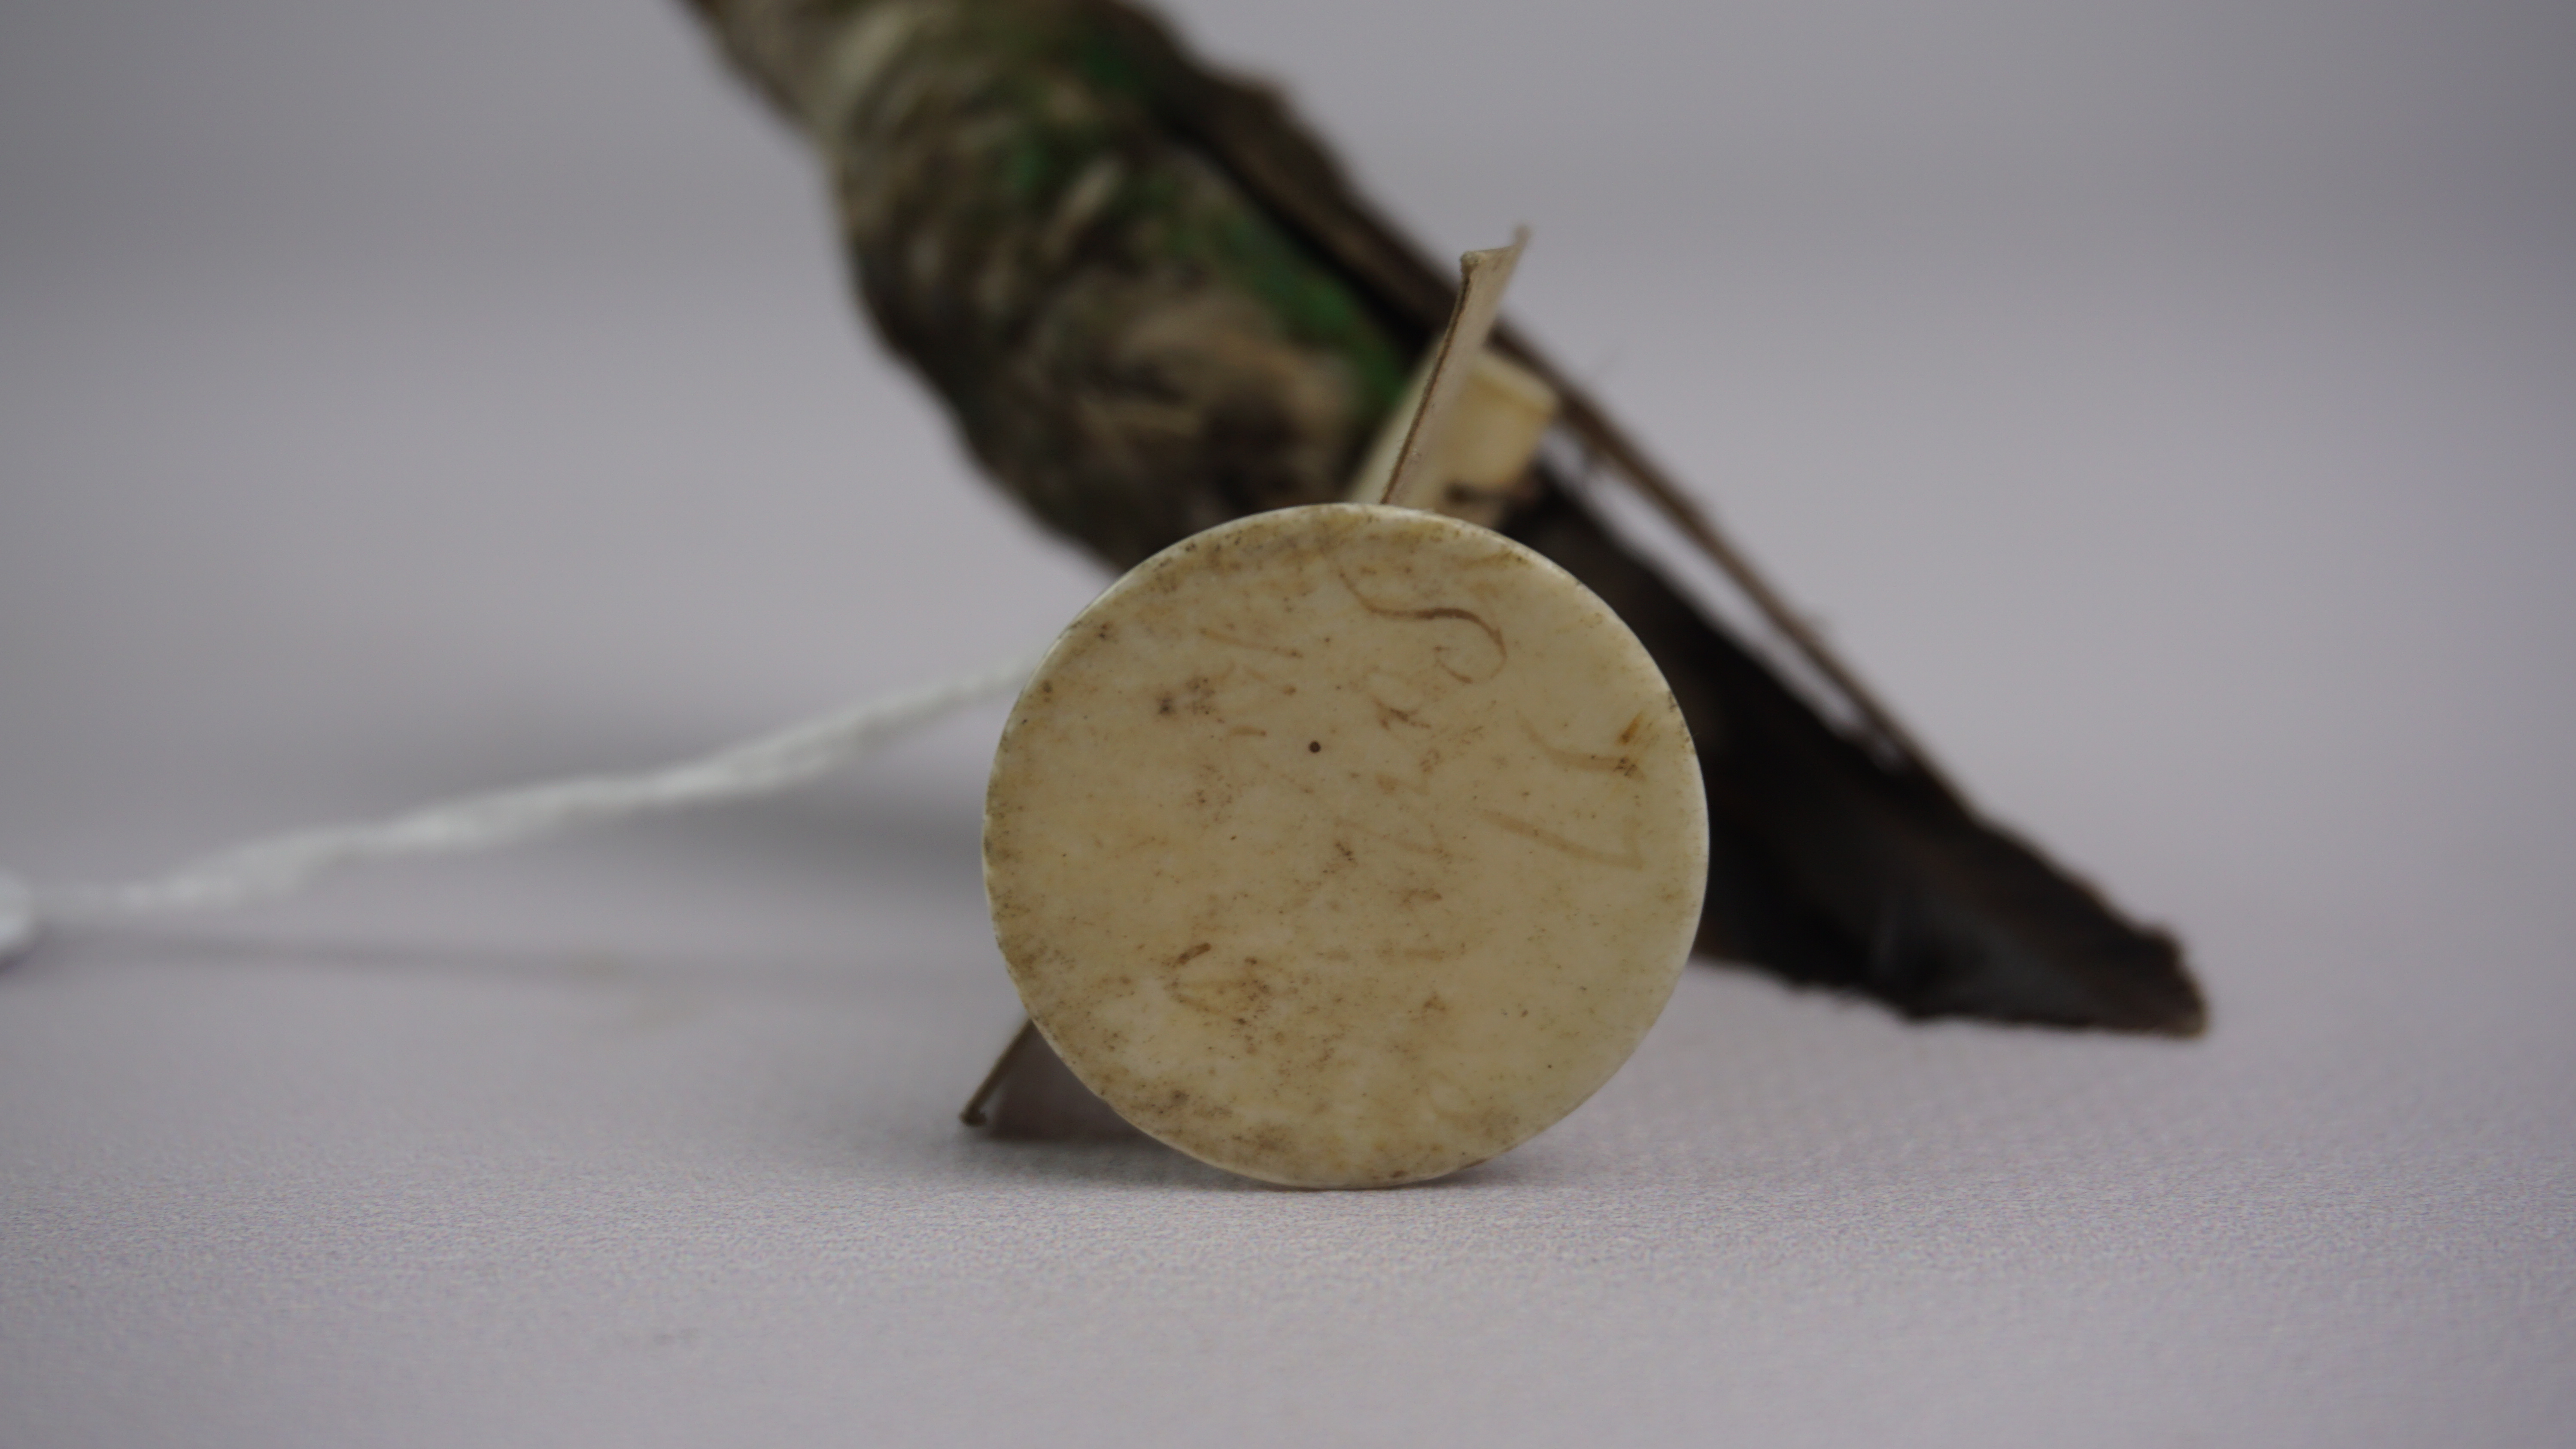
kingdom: Animalia
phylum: Chordata
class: Aves
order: Apodiformes
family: Trochilidae
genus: Heliangelus
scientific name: Heliangelus exortis
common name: Tourmaline sunangel
